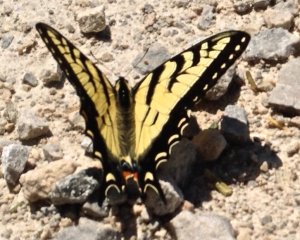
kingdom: Animalia
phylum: Arthropoda
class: Insecta
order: Lepidoptera
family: Papilionidae
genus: Pterourus
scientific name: Pterourus canadensis
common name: Canadian Tiger Swallowtail
